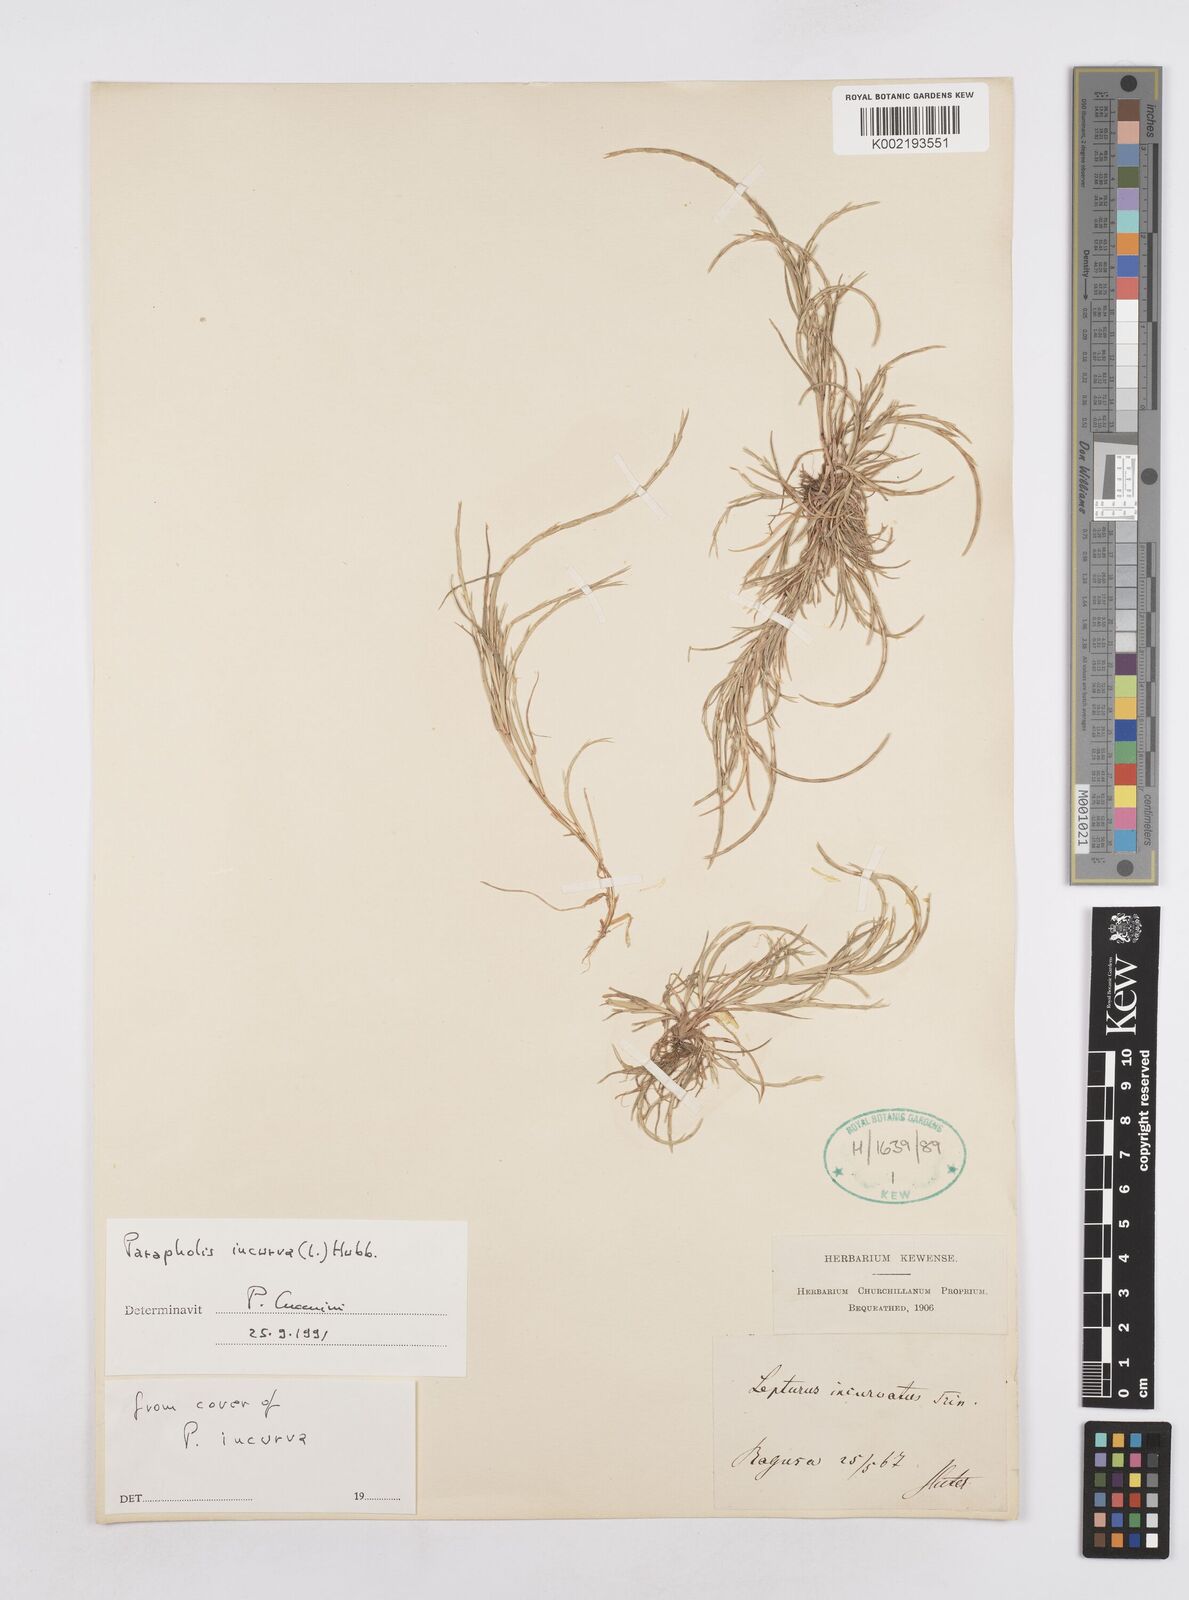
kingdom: Plantae
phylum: Tracheophyta
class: Liliopsida
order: Poales
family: Poaceae
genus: Parapholis
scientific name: Parapholis incurva
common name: Curved sicklegrass
